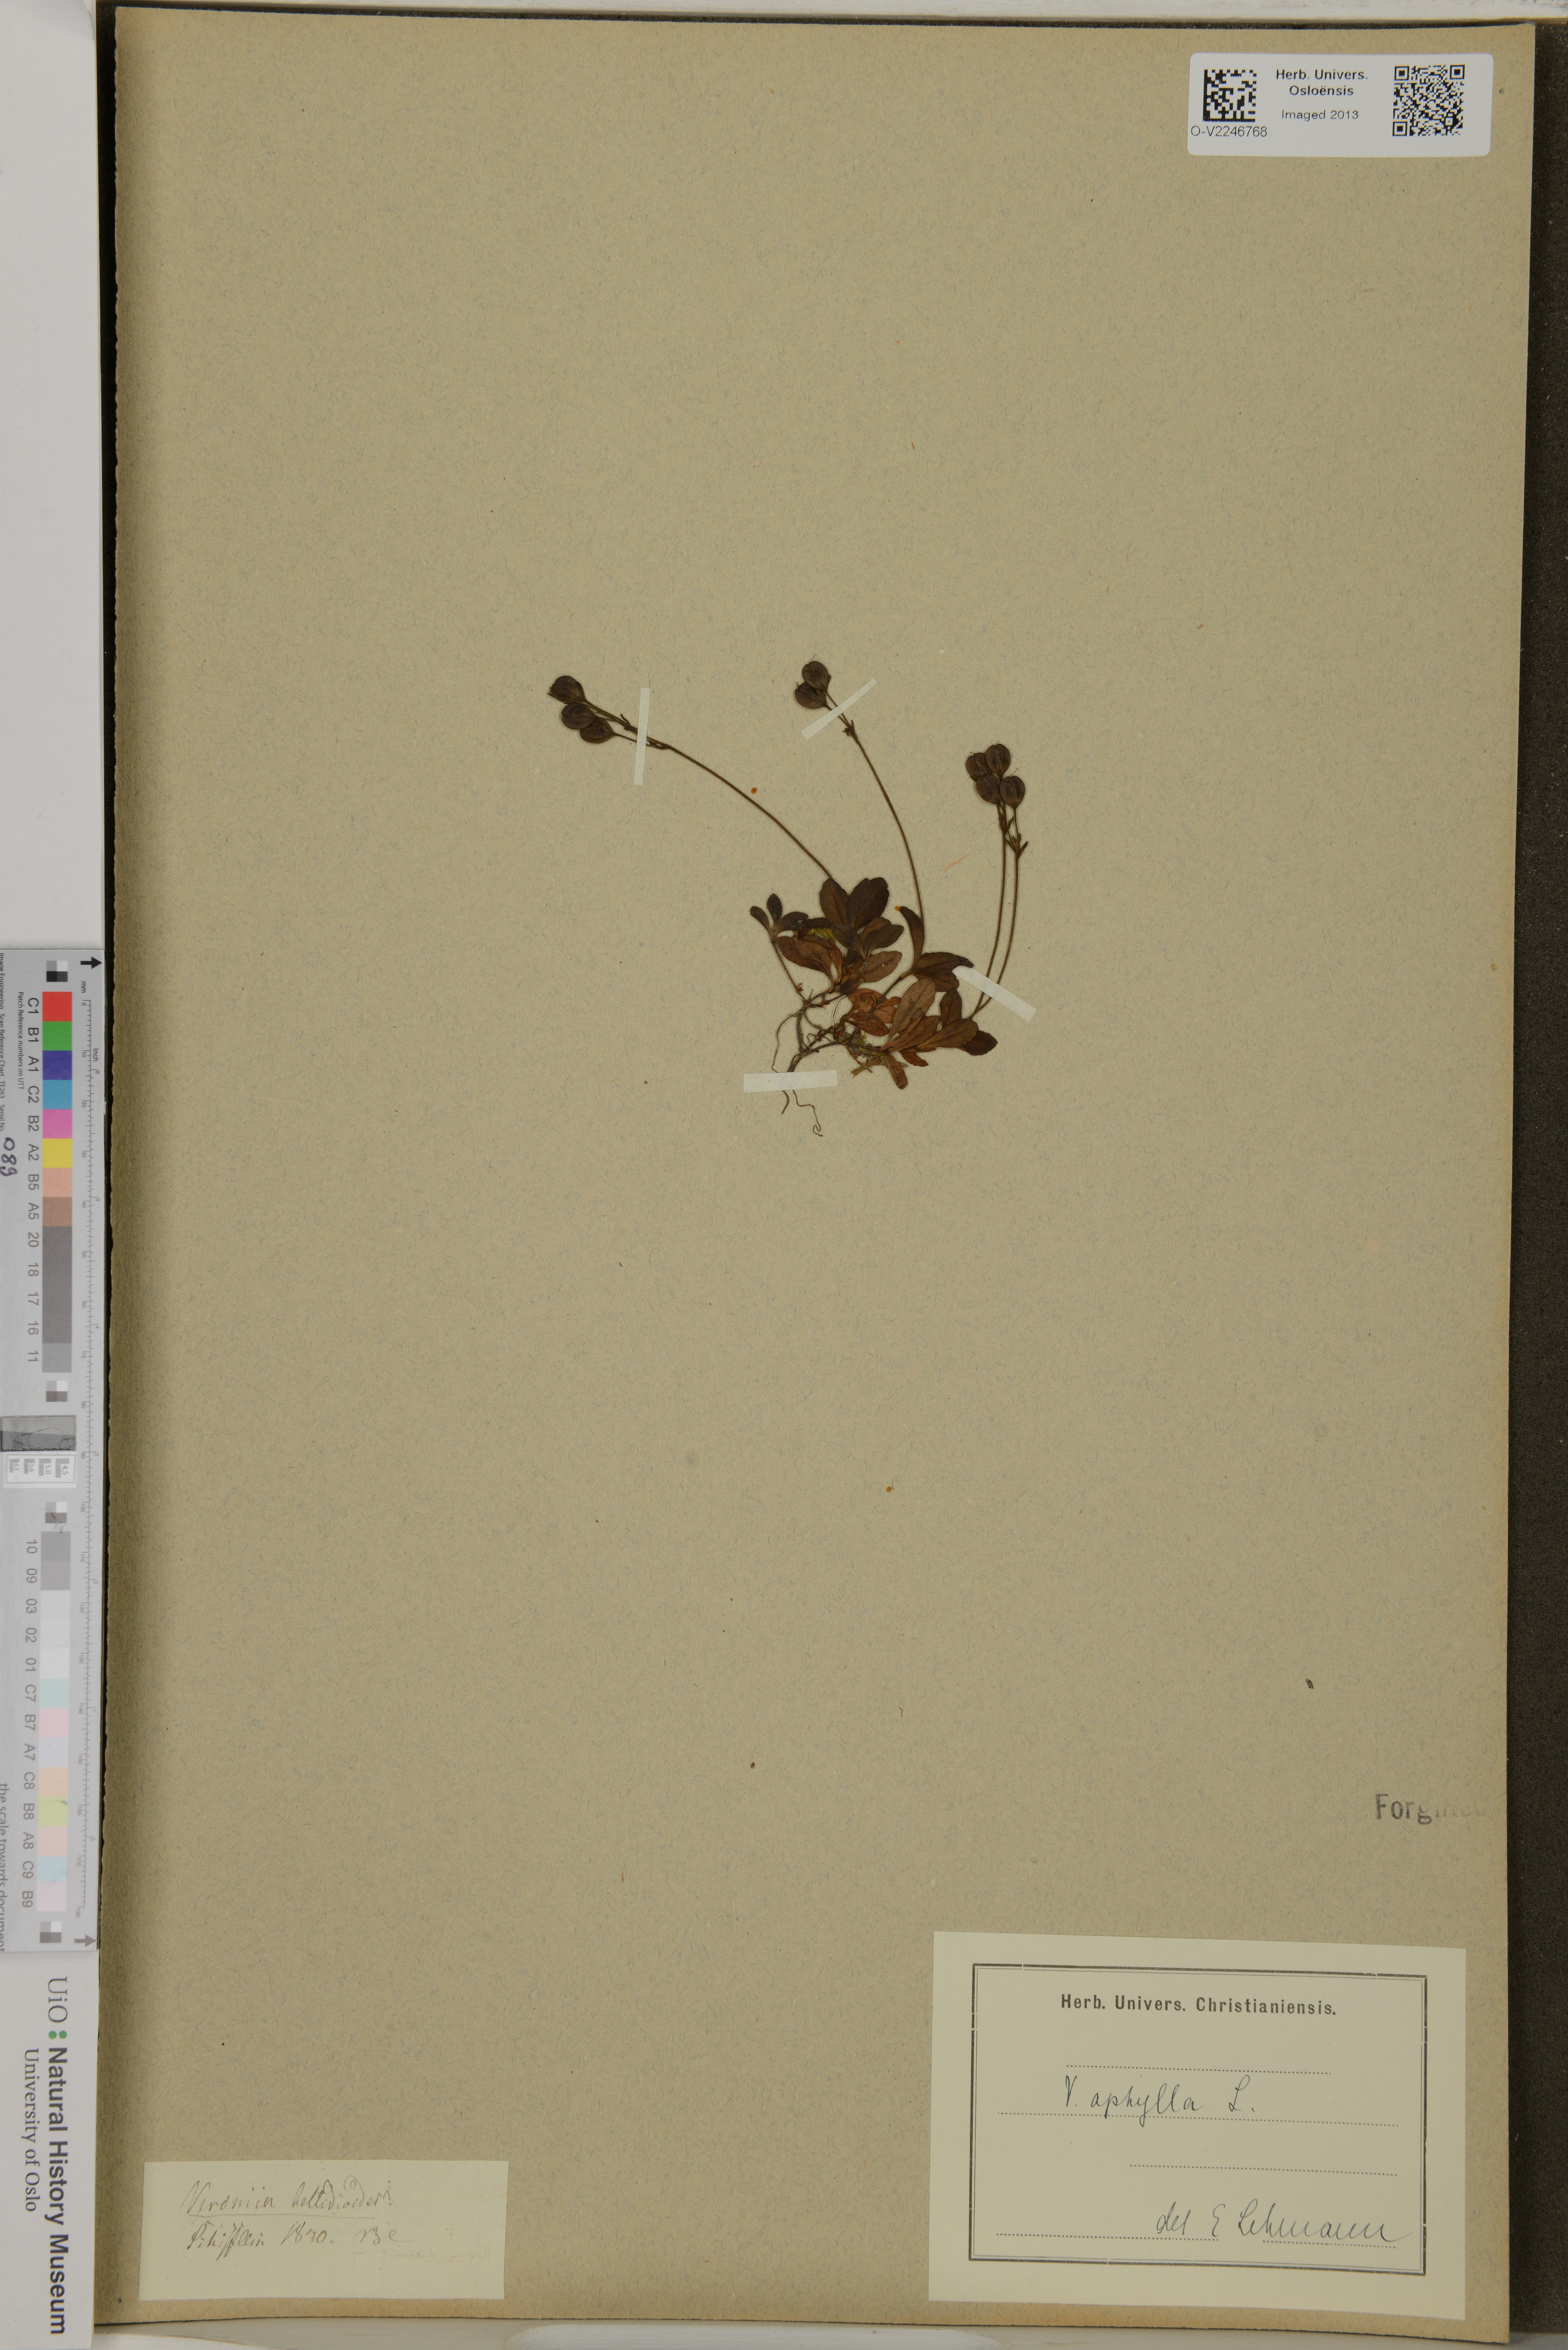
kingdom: Plantae
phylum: Tracheophyta
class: Magnoliopsida
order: Lamiales
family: Plantaginaceae
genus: Veronica
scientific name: Veronica aphylla
